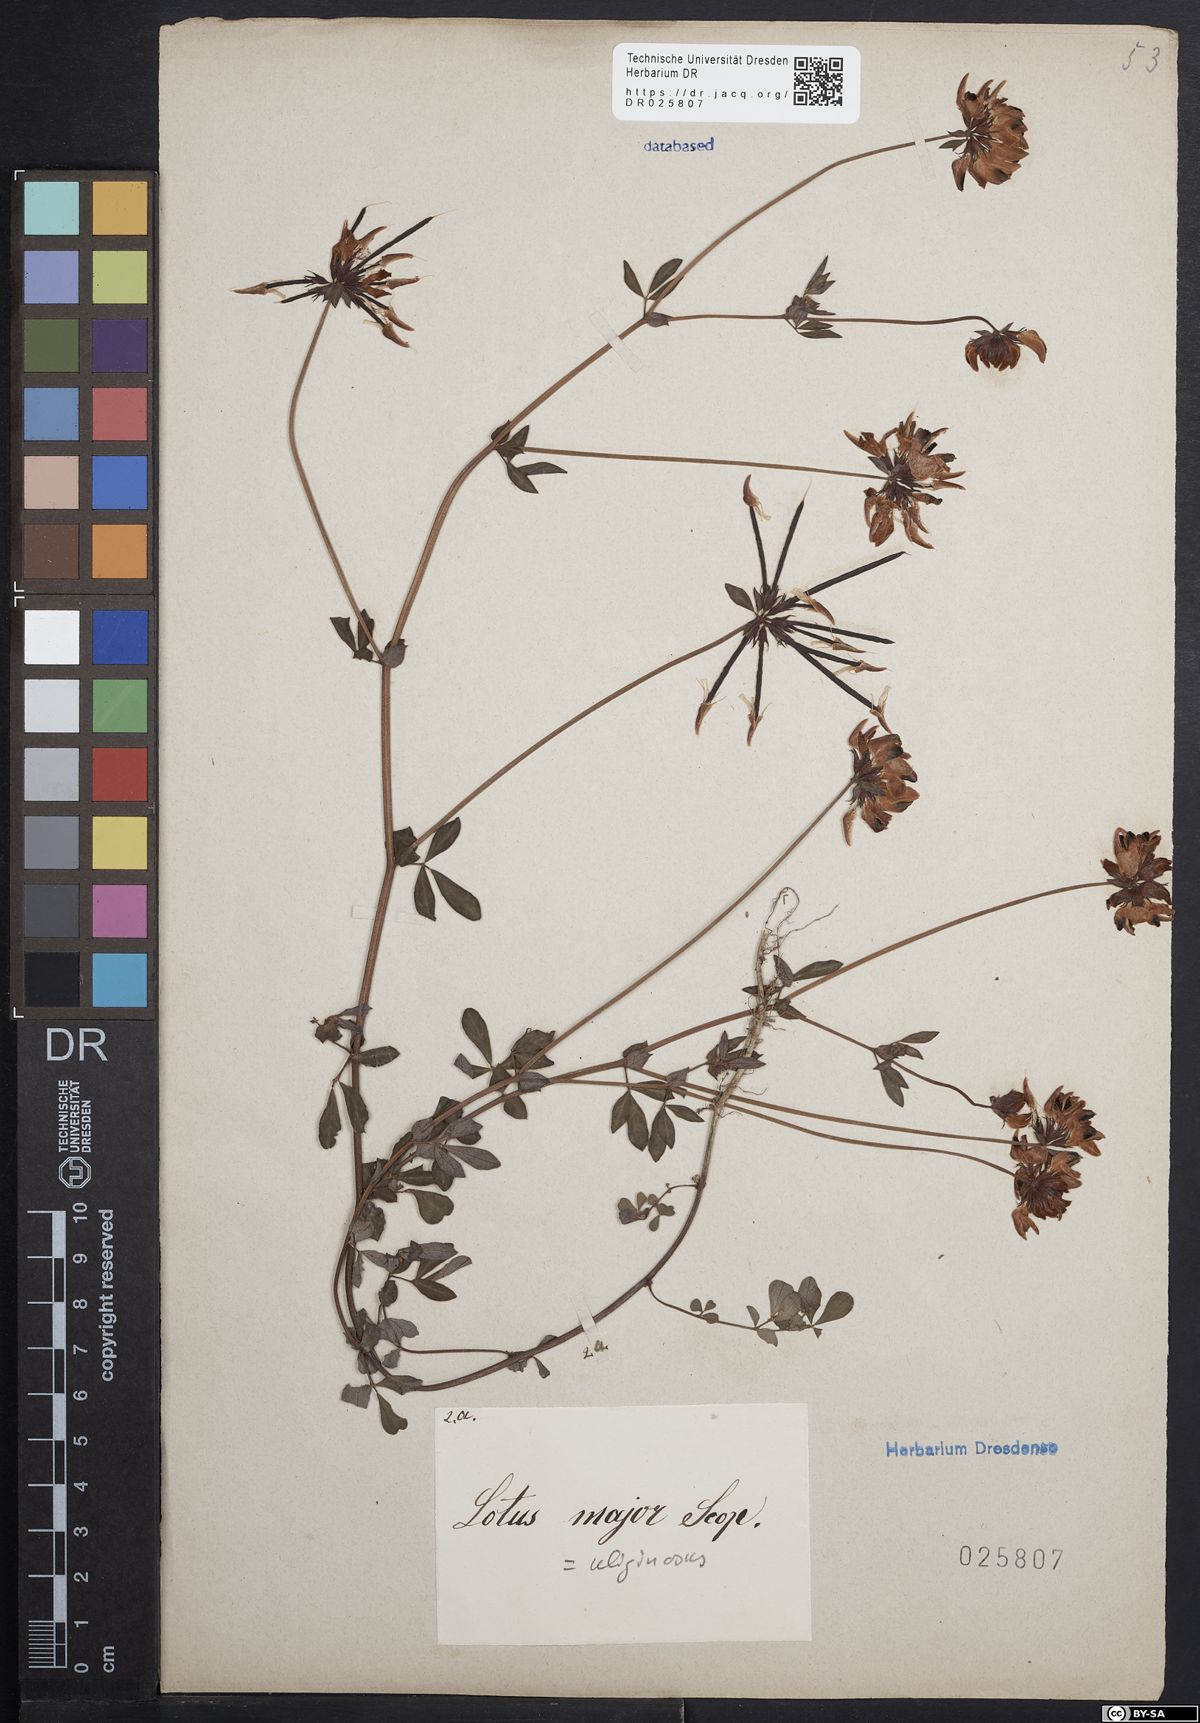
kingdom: Plantae
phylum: Tracheophyta
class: Magnoliopsida
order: Fabales
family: Fabaceae
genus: Lotus
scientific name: Lotus pedunculatus
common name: Greater birdsfoot-trefoil
